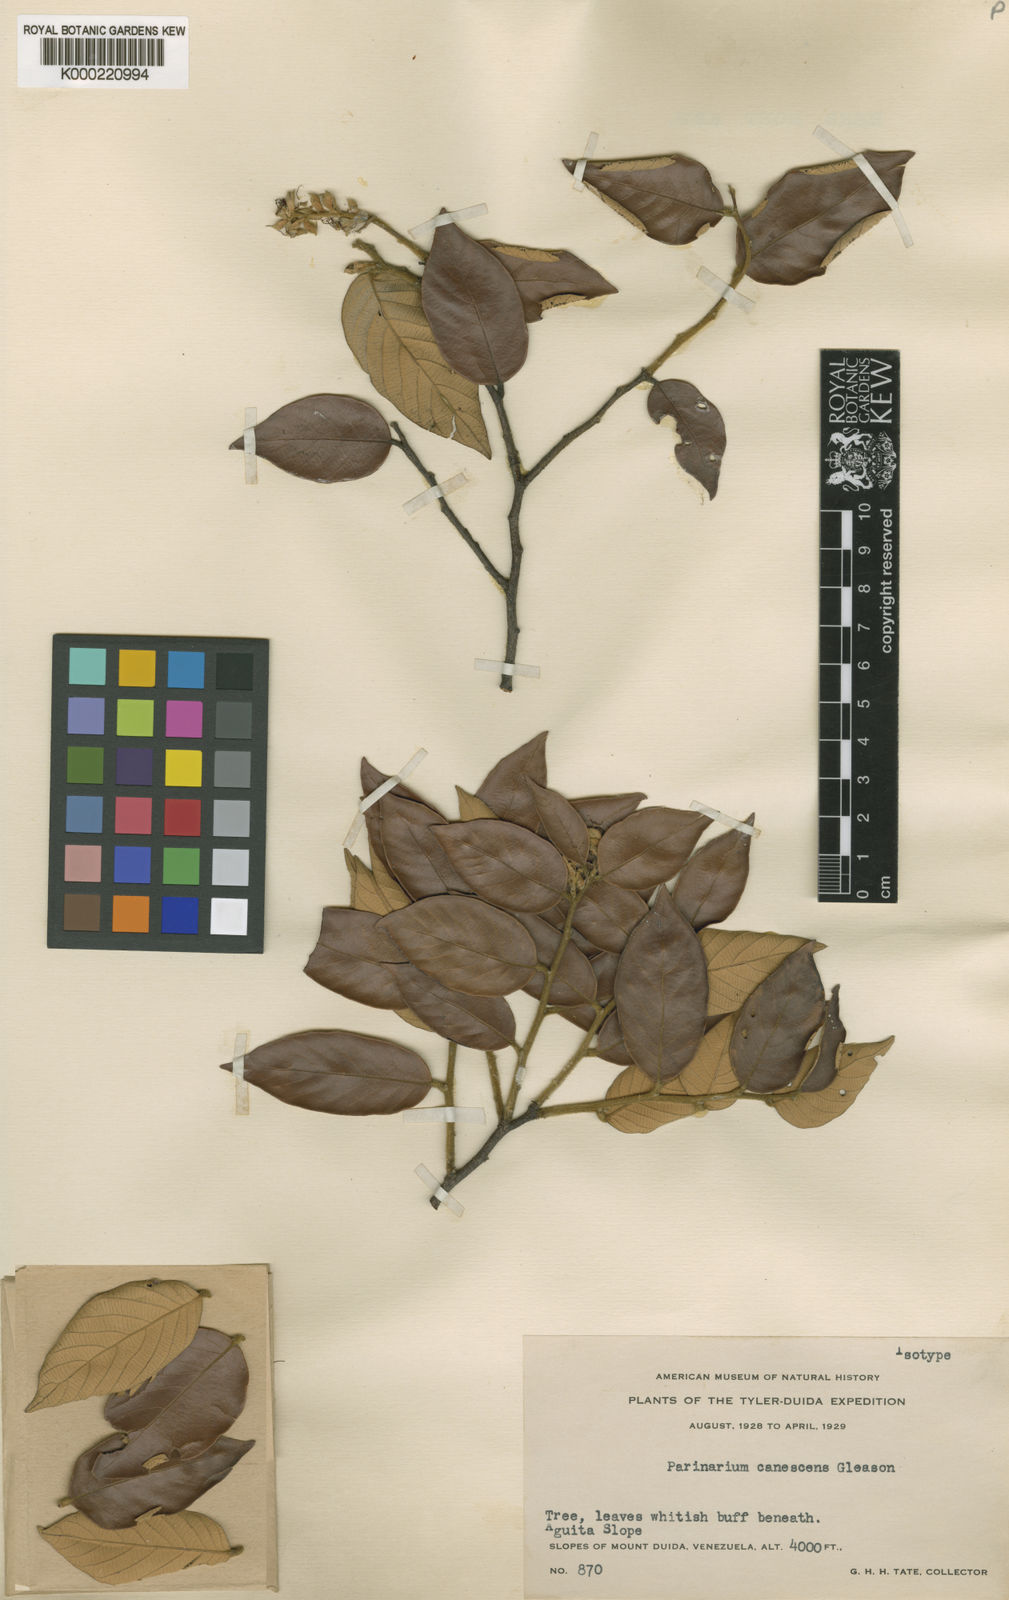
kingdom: Plantae
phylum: Tracheophyta
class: Magnoliopsida
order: Malpighiales
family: Chrysobalanaceae
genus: Couepia
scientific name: Couepia
